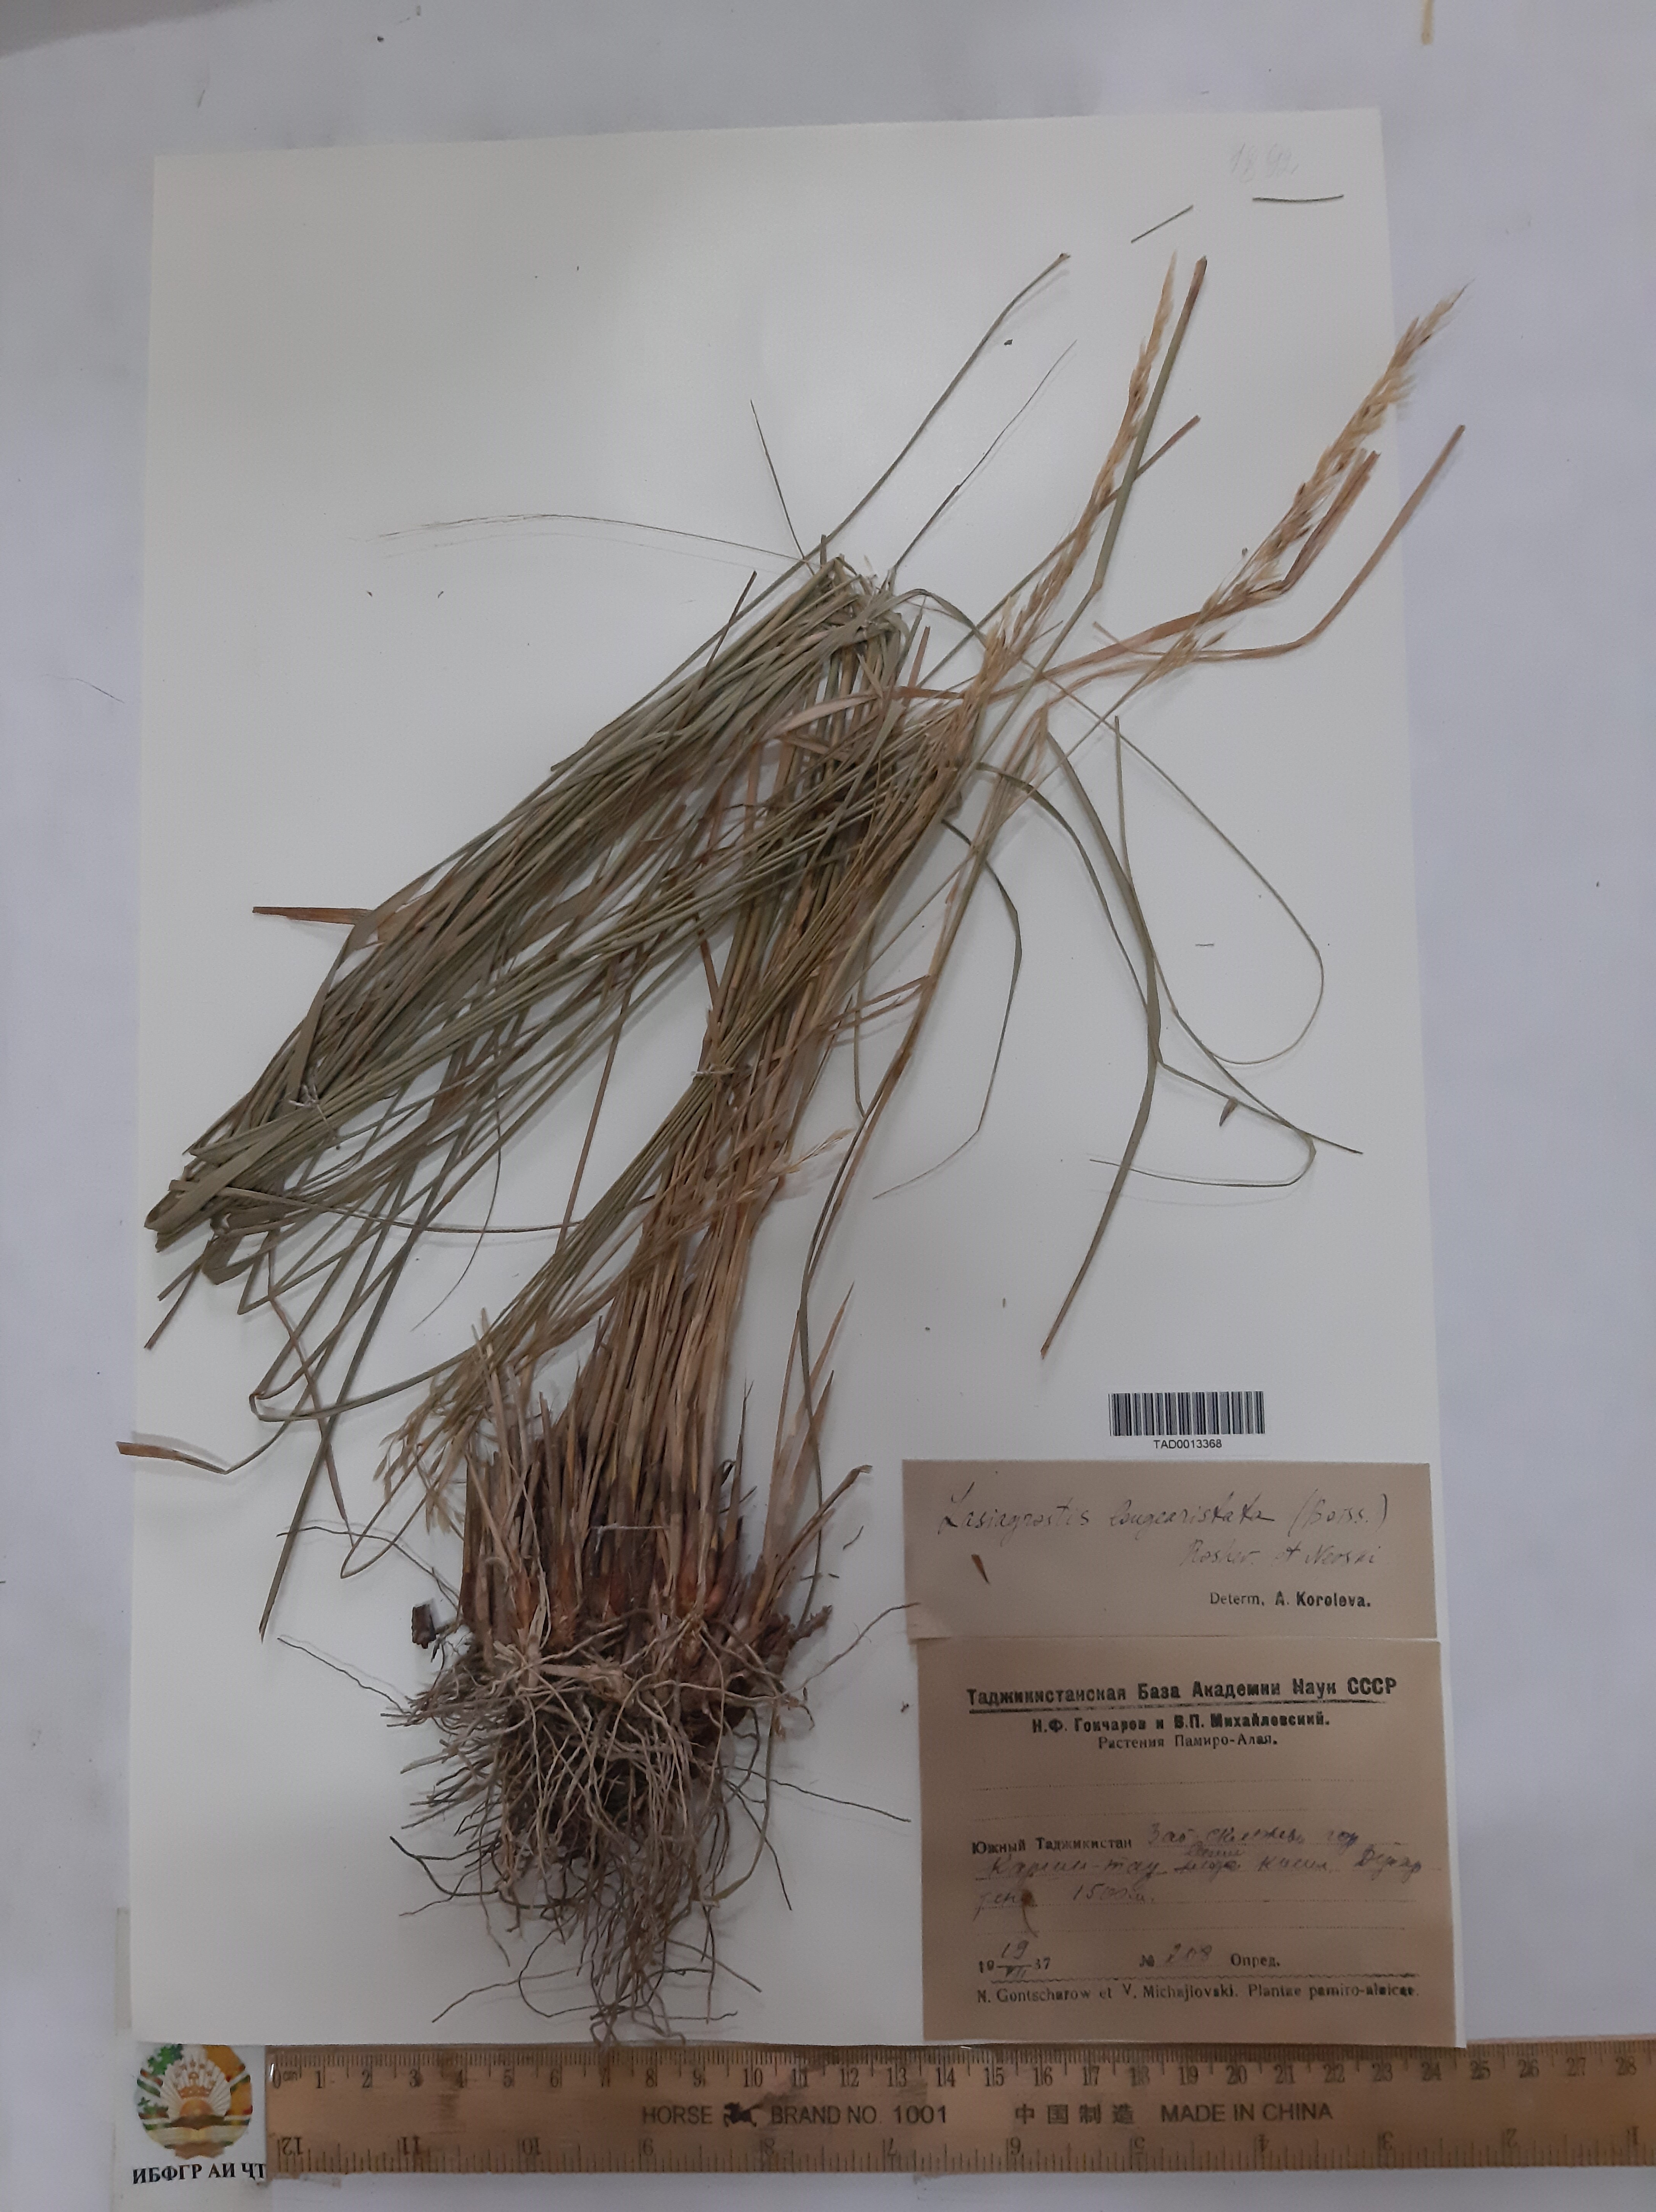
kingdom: Plantae
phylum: Tracheophyta
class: Liliopsida
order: Poales
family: Poaceae
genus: Achnatherum
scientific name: Achnatherum turcomanicum
